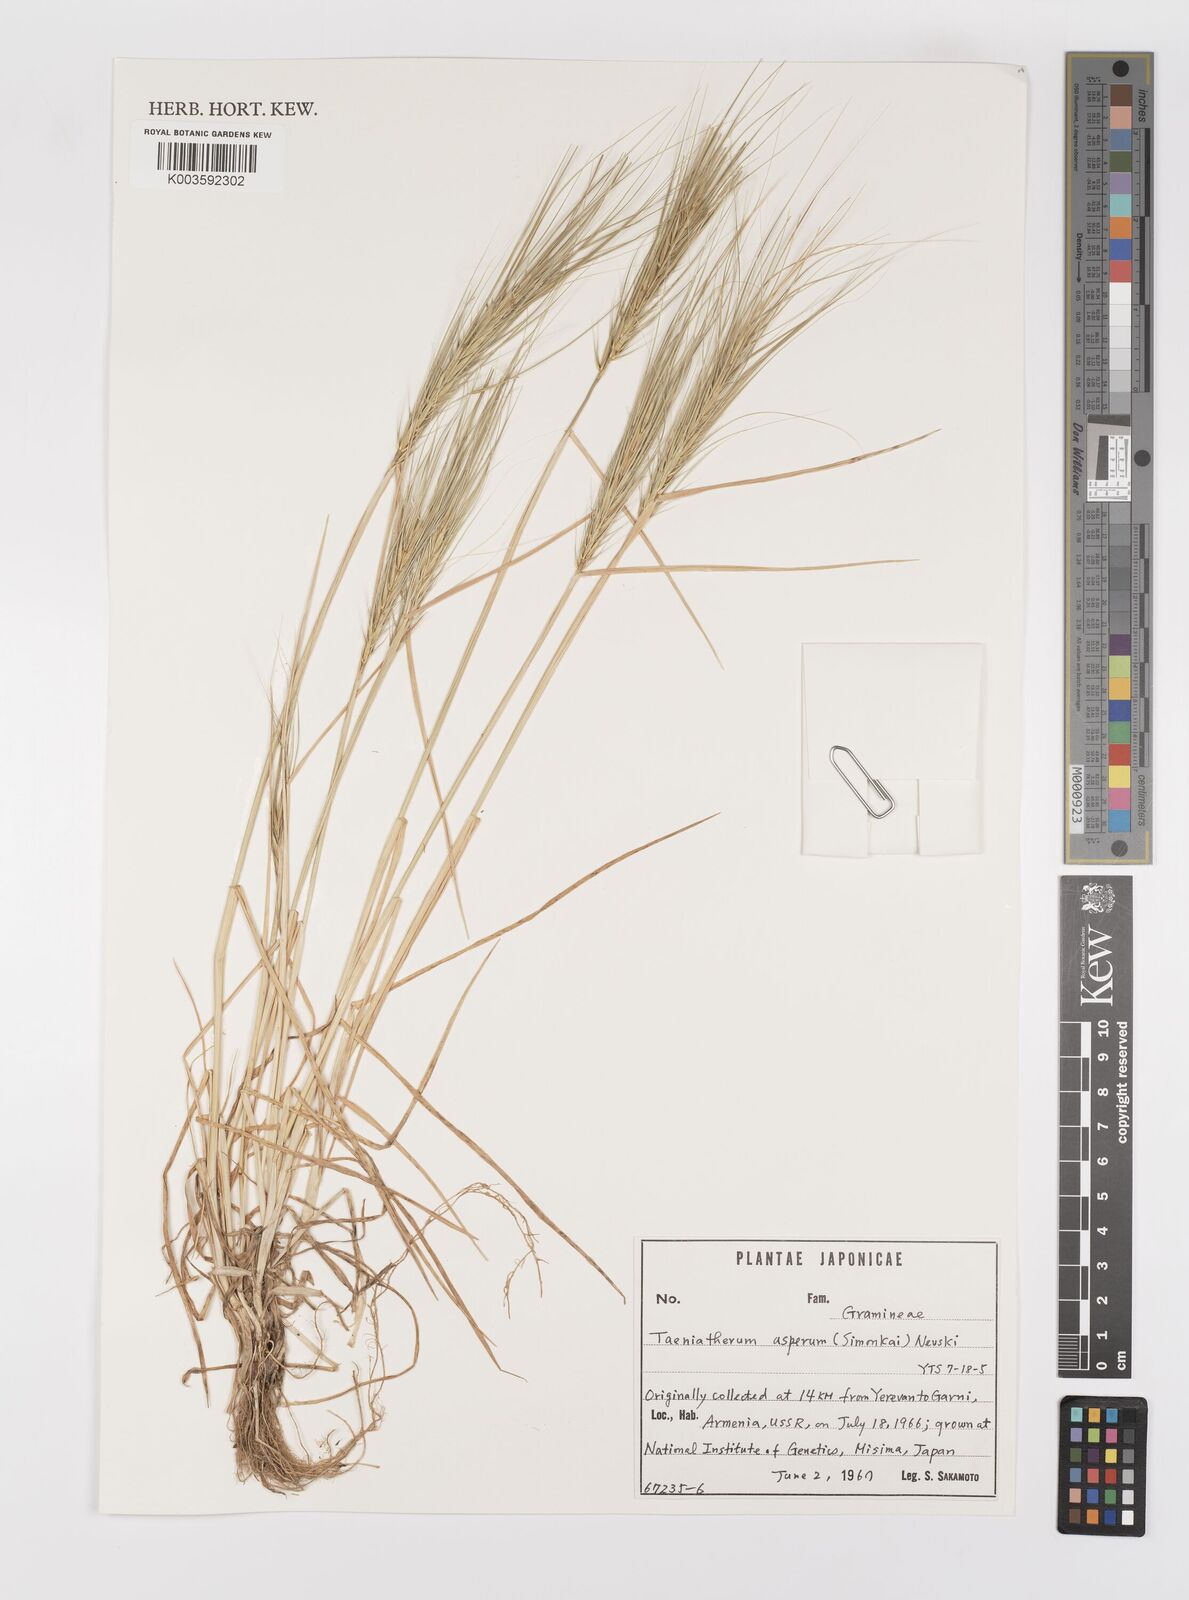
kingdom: Plantae
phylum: Tracheophyta
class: Liliopsida
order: Poales
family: Poaceae
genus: Taeniatherum
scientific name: Taeniatherum caput-medusae
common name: Medusahead
